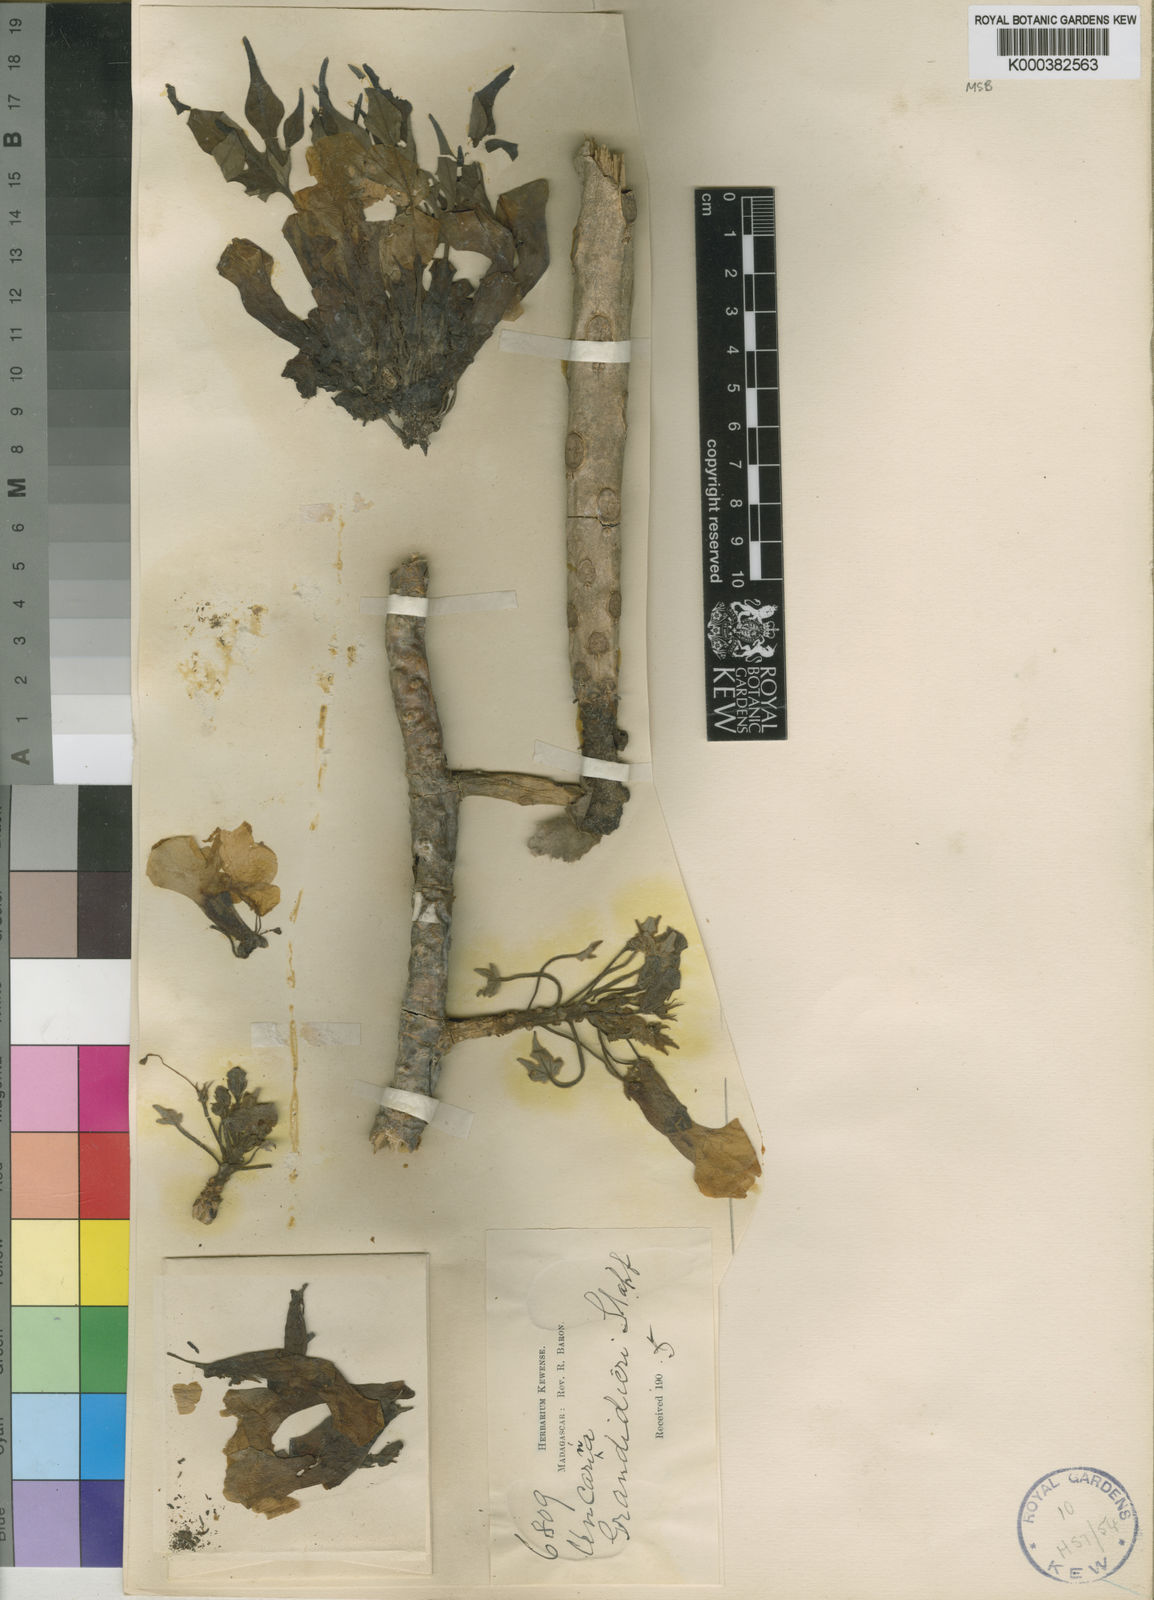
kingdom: Plantae
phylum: Tracheophyta
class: Magnoliopsida
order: Lamiales
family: Pedaliaceae
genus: Uncarina
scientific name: Uncarina
